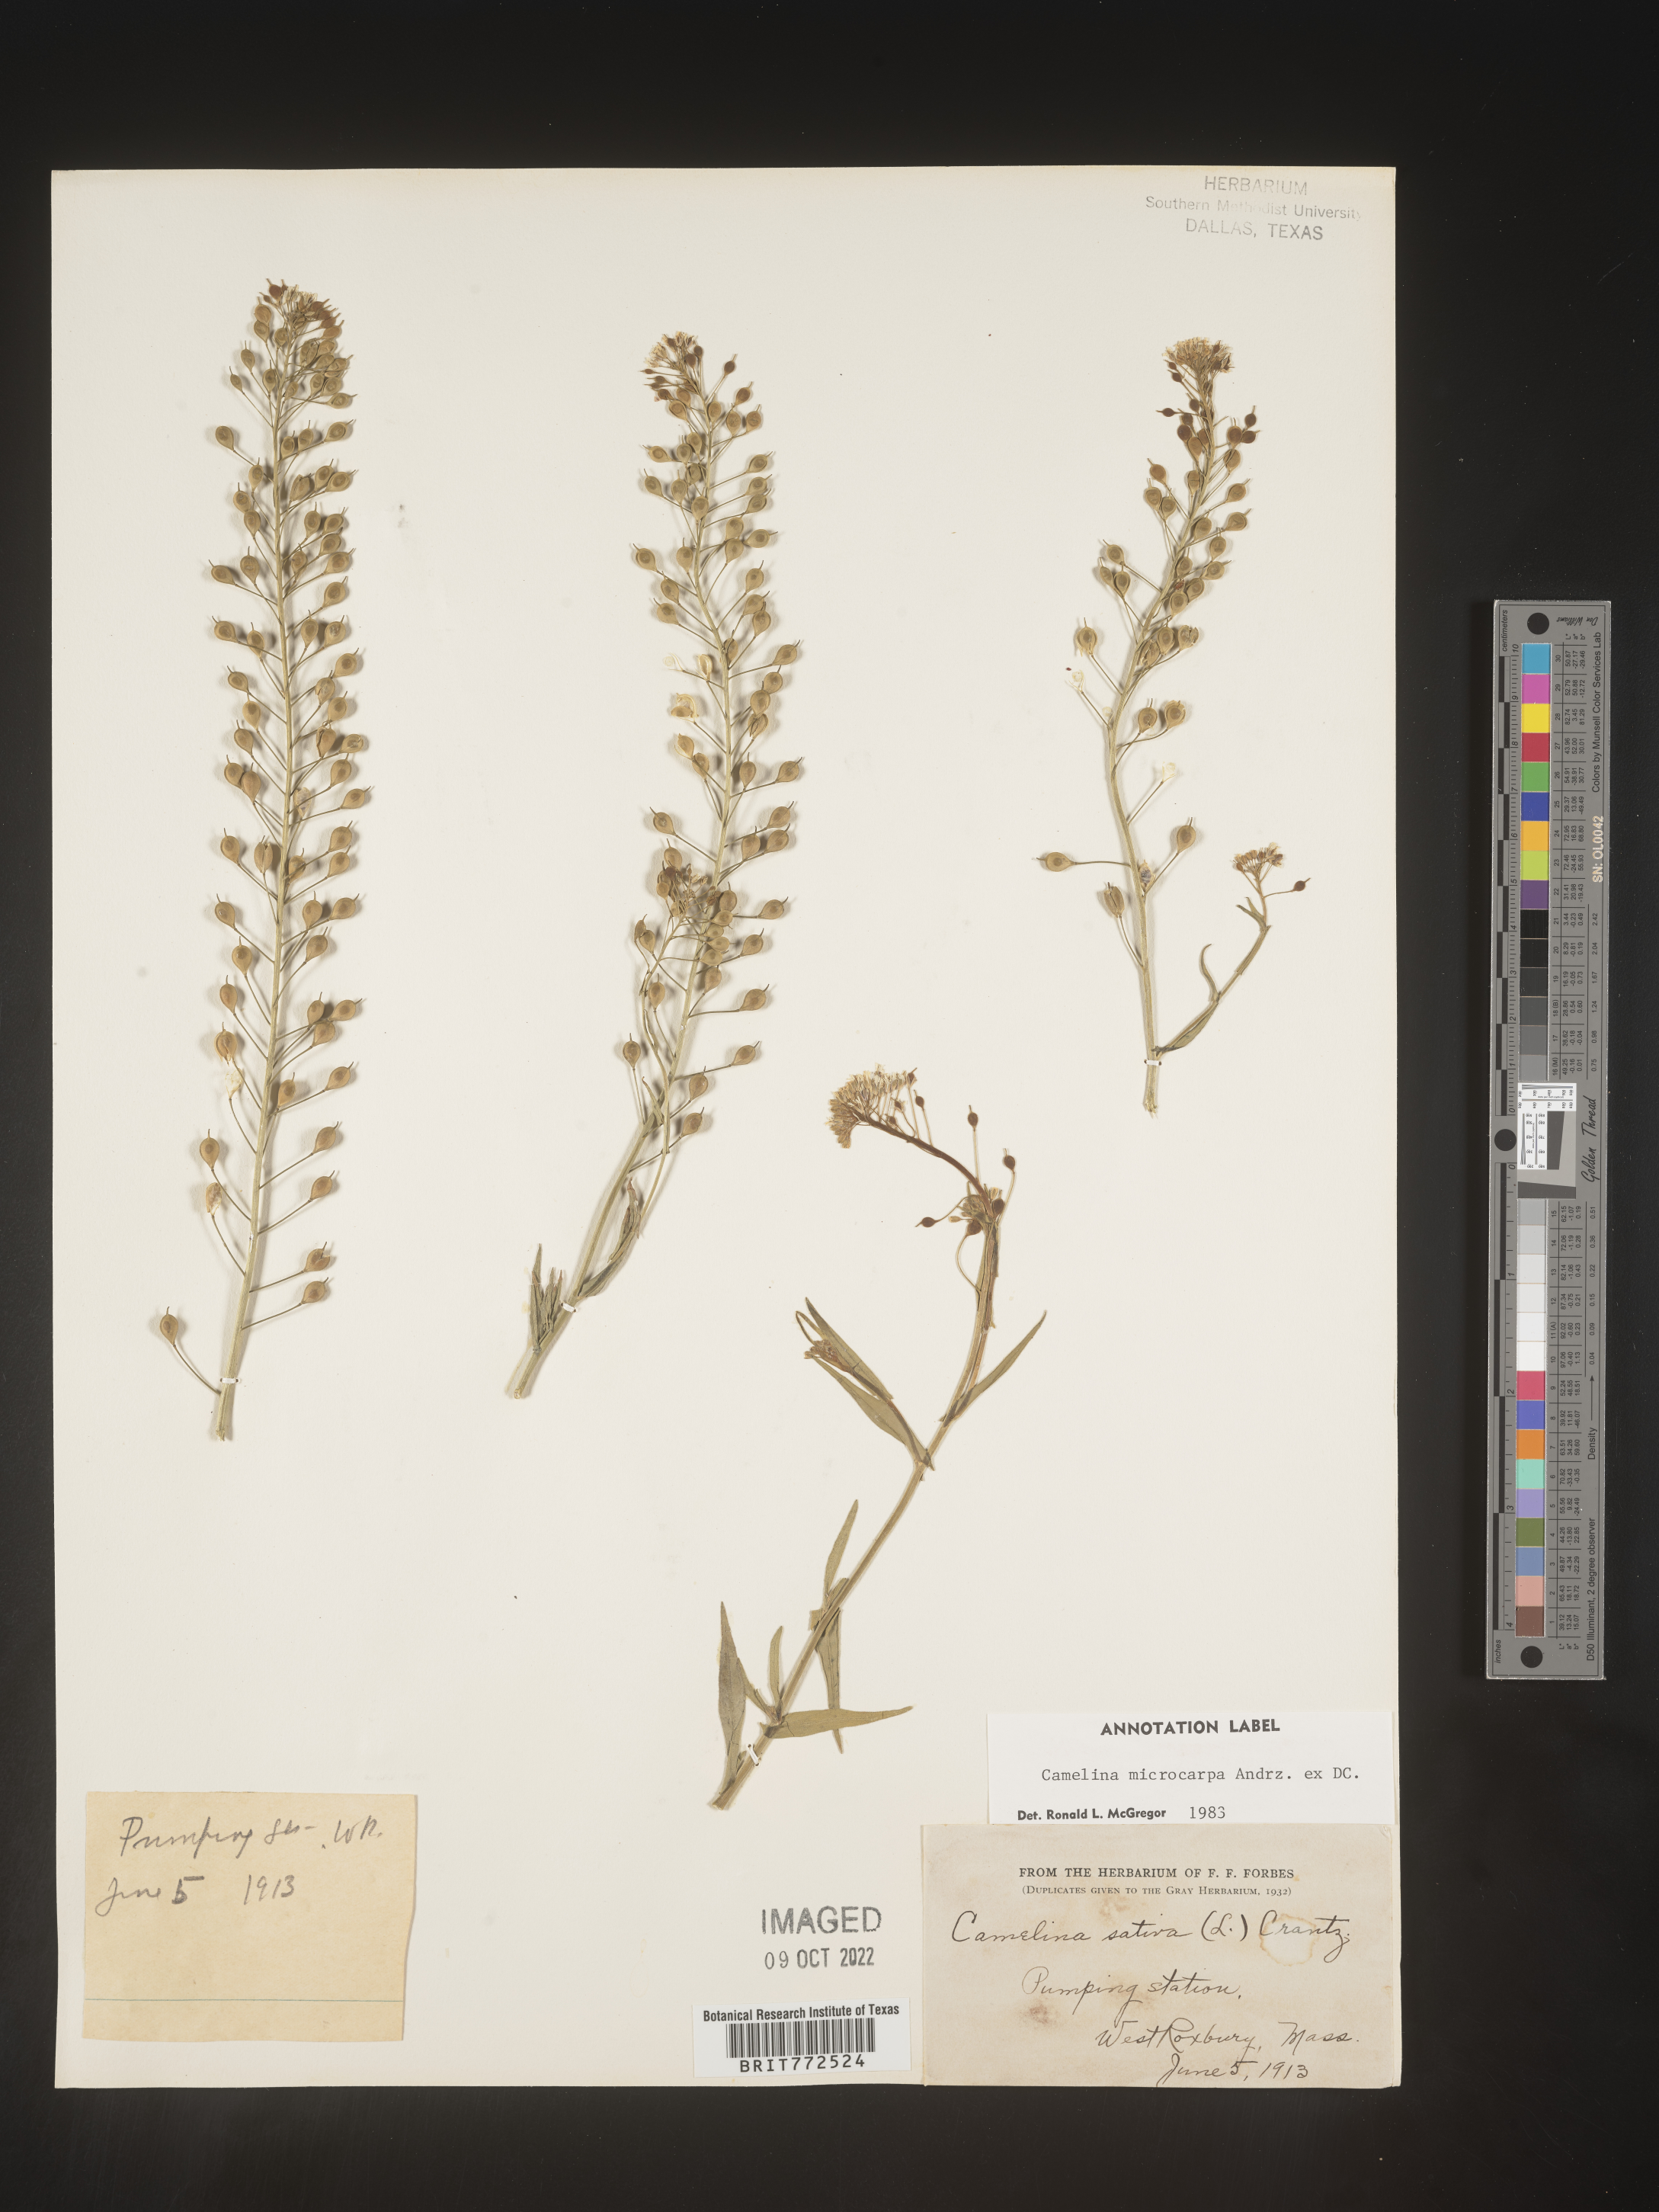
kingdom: Plantae
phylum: Tracheophyta
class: Magnoliopsida
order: Brassicales
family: Brassicaceae
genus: Camelina
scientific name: Camelina microcarpa
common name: Lesser gold-of-pleasure
